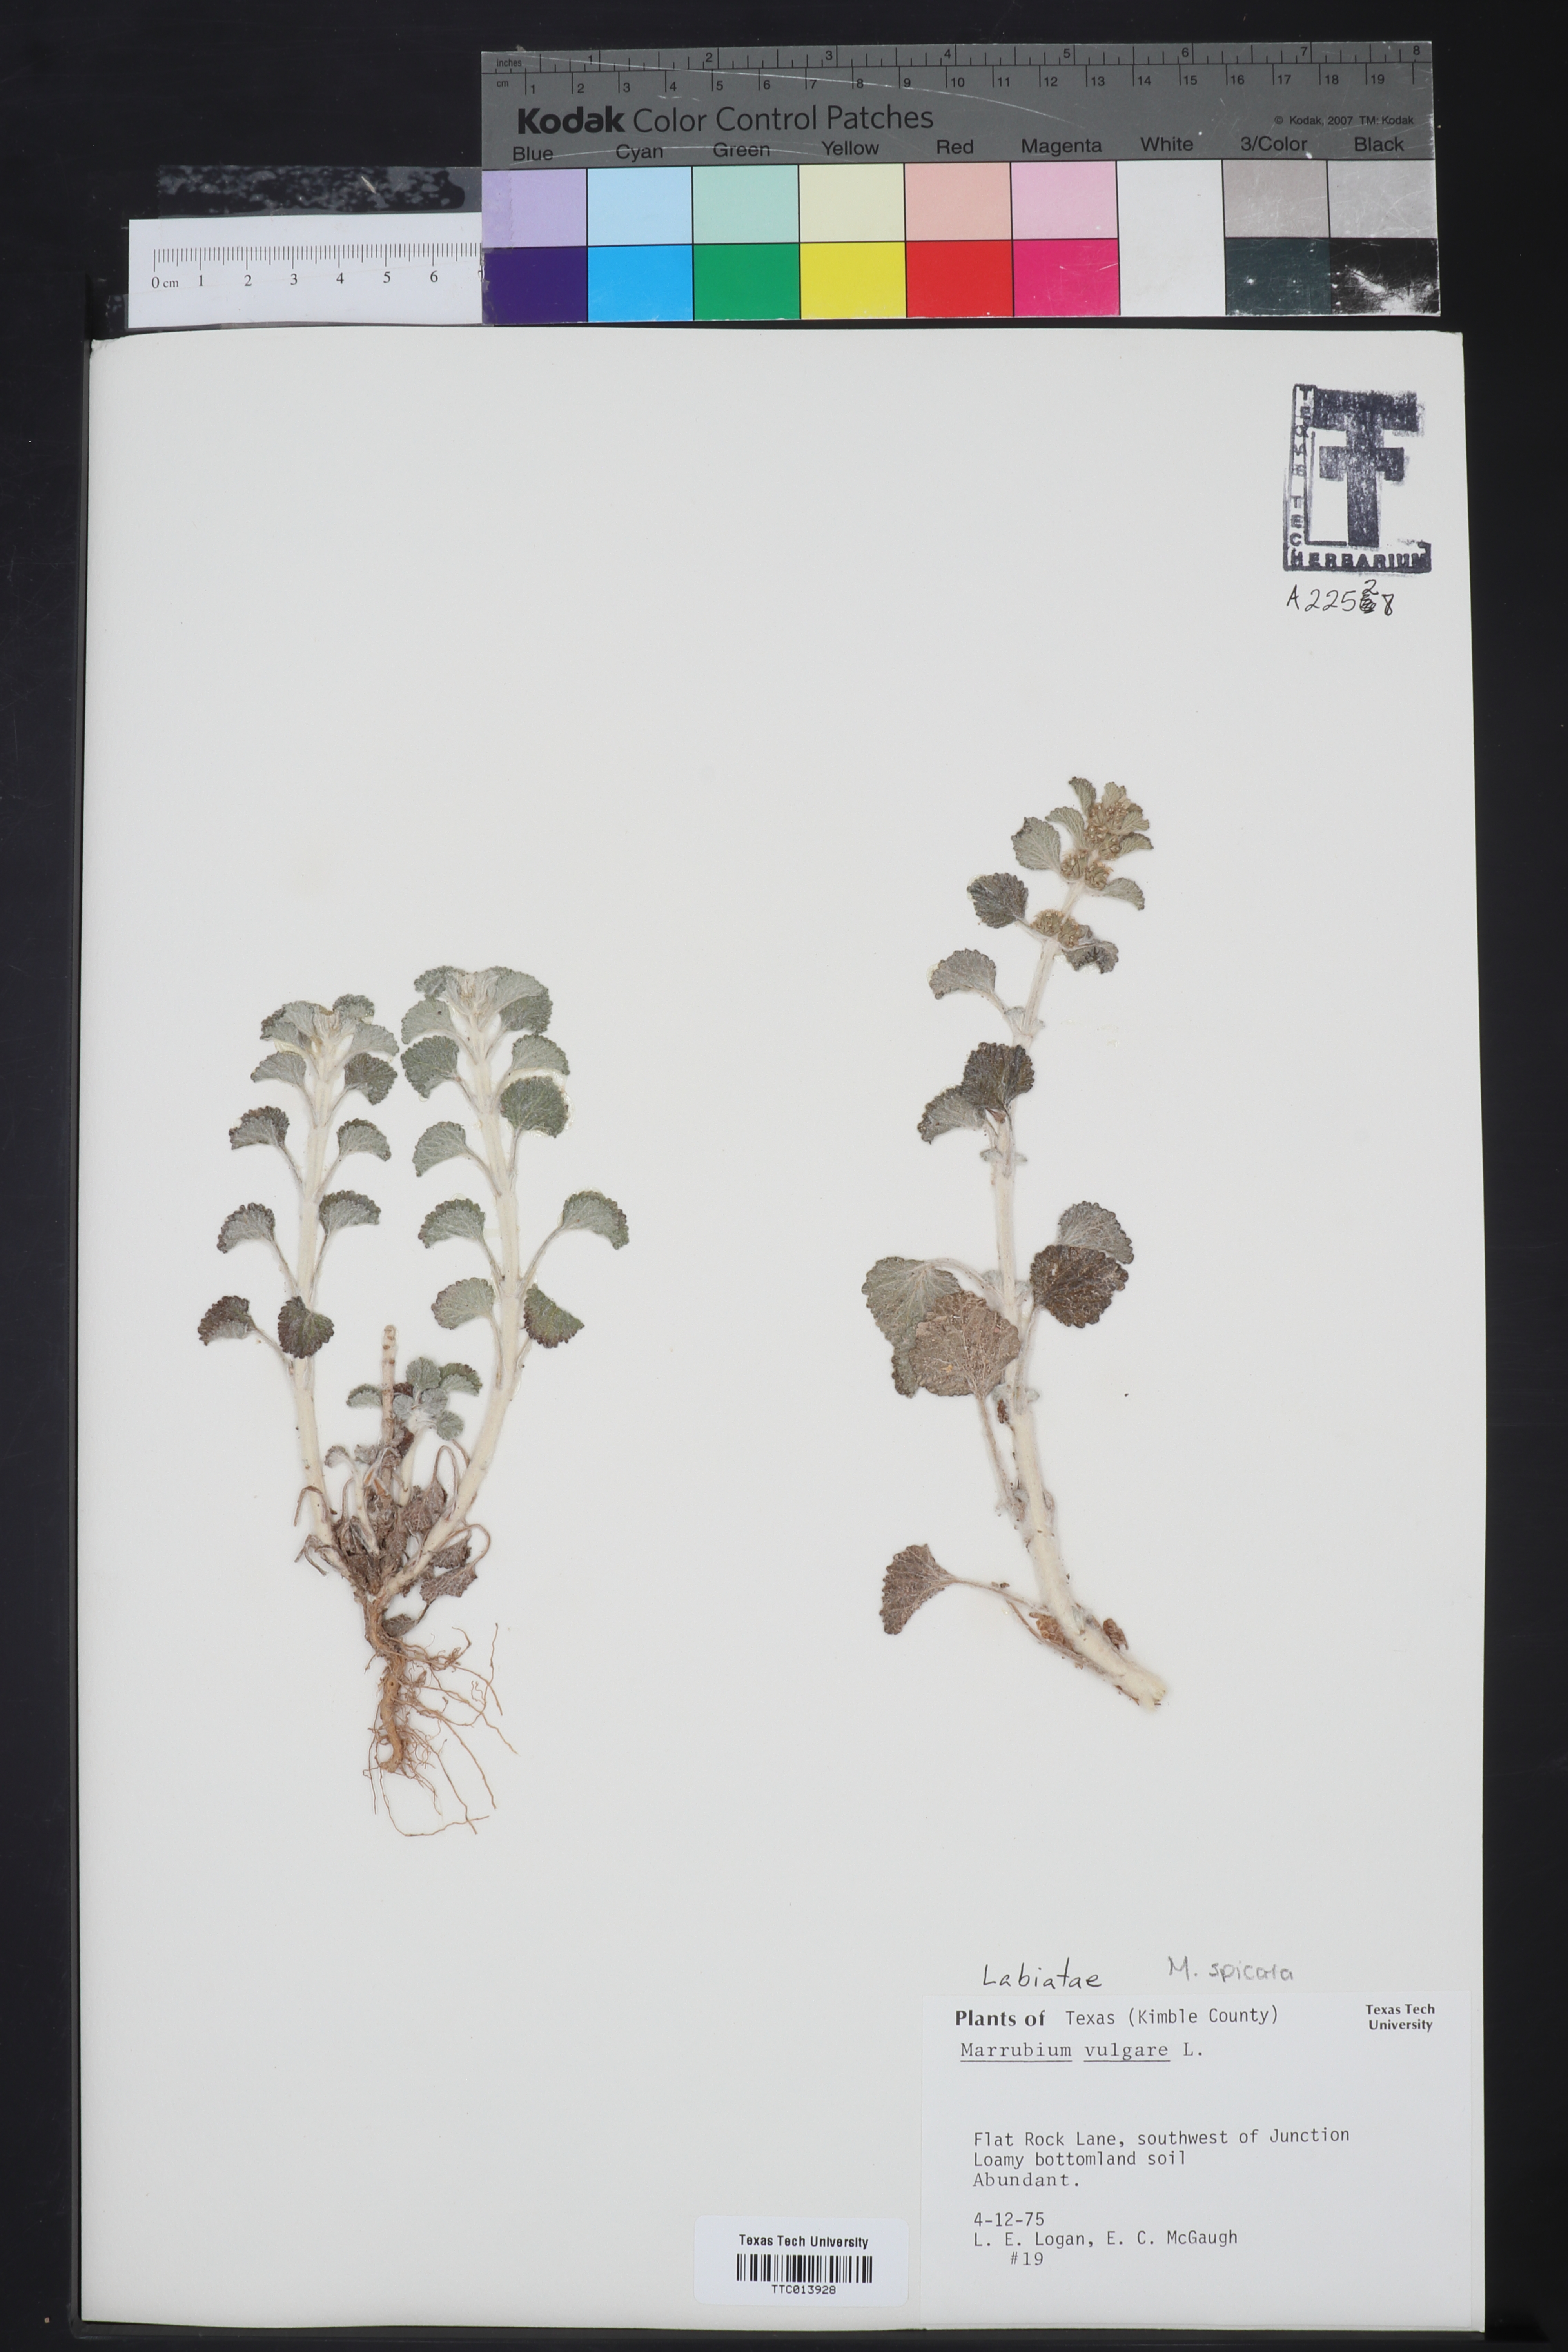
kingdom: Plantae
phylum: Tracheophyta
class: Magnoliopsida
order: Lamiales
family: Lamiaceae
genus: Marrubium
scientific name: Marrubium vulgare
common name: Horehound
